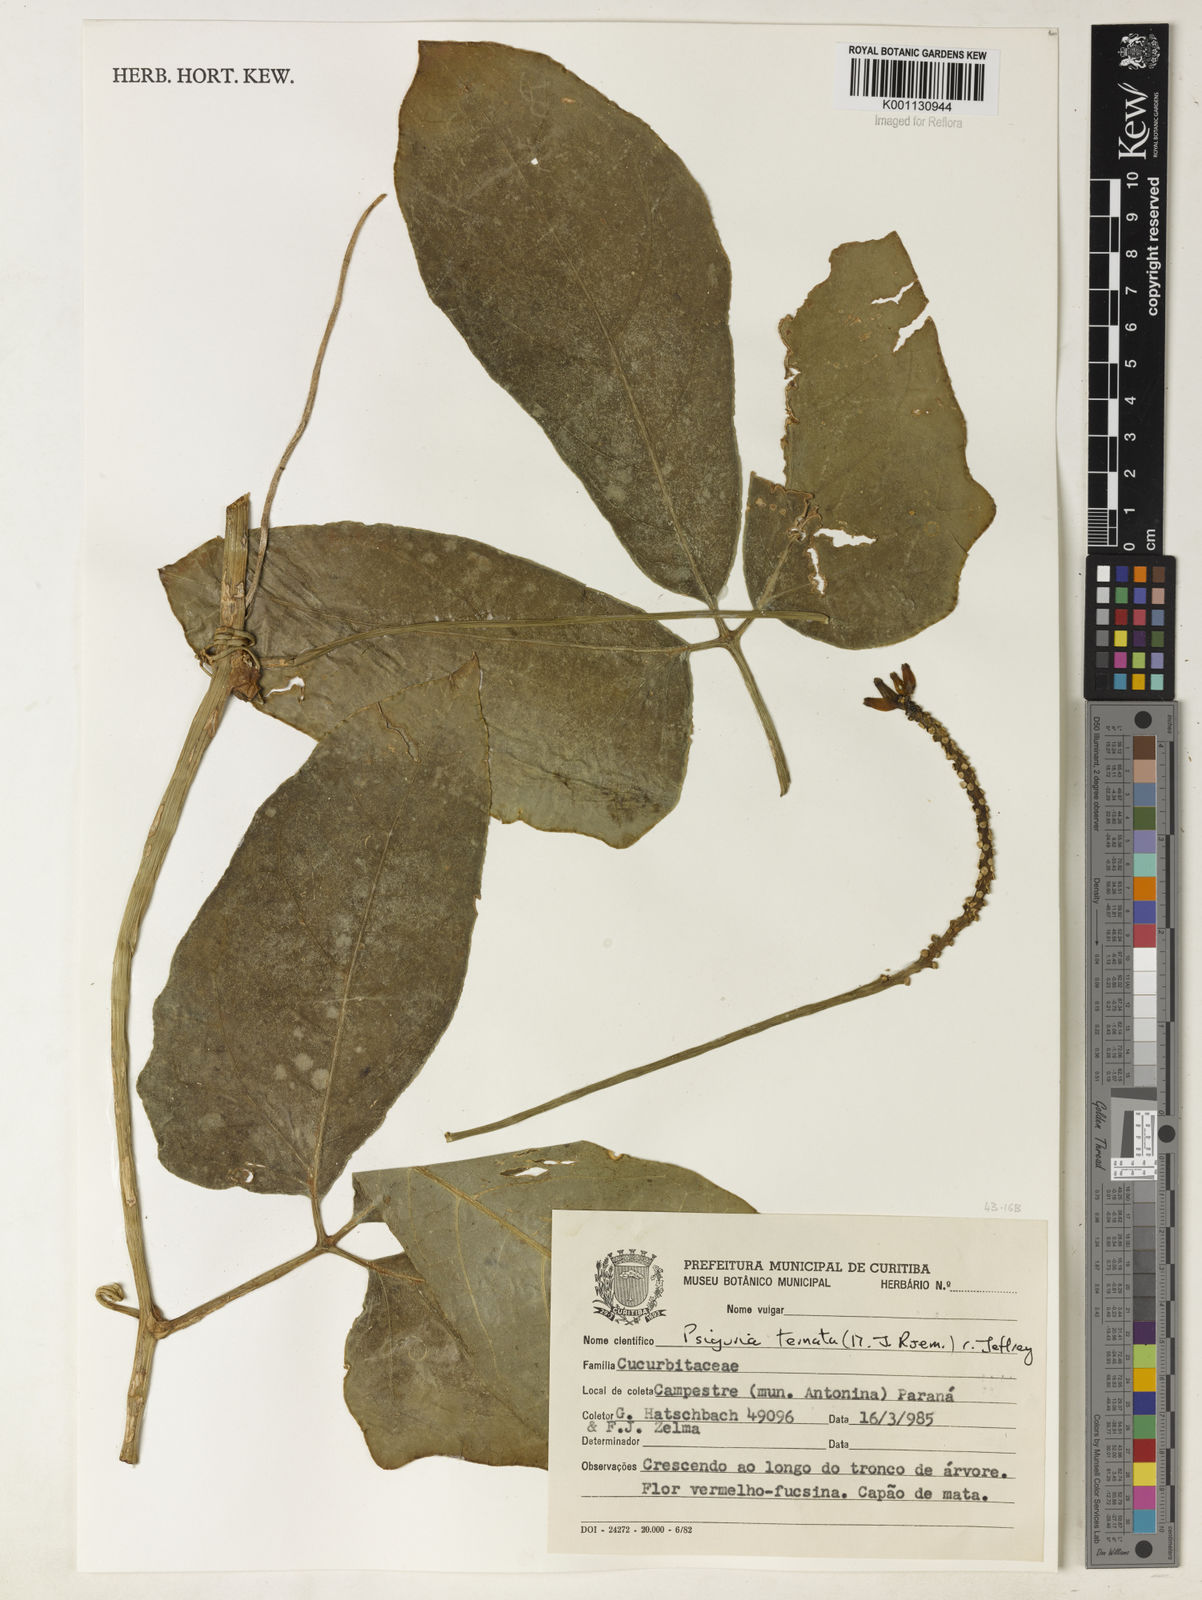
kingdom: Plantae
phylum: Tracheophyta
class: Magnoliopsida
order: Cucurbitales
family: Cucurbitaceae
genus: Psiguria
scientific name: Psiguria ternata
